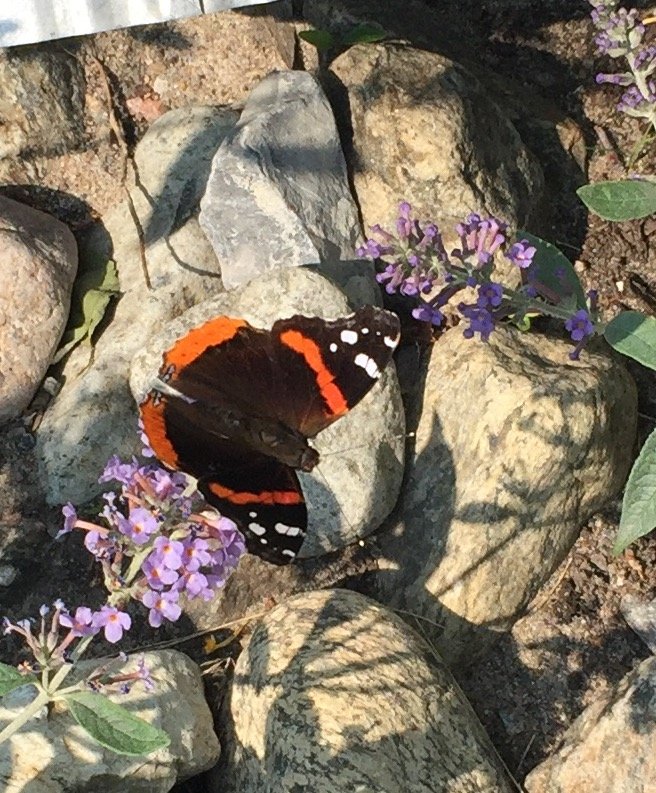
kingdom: Animalia
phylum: Arthropoda
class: Insecta
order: Lepidoptera
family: Nymphalidae
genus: Vanessa
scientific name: Vanessa atalanta
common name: Red Admiral
